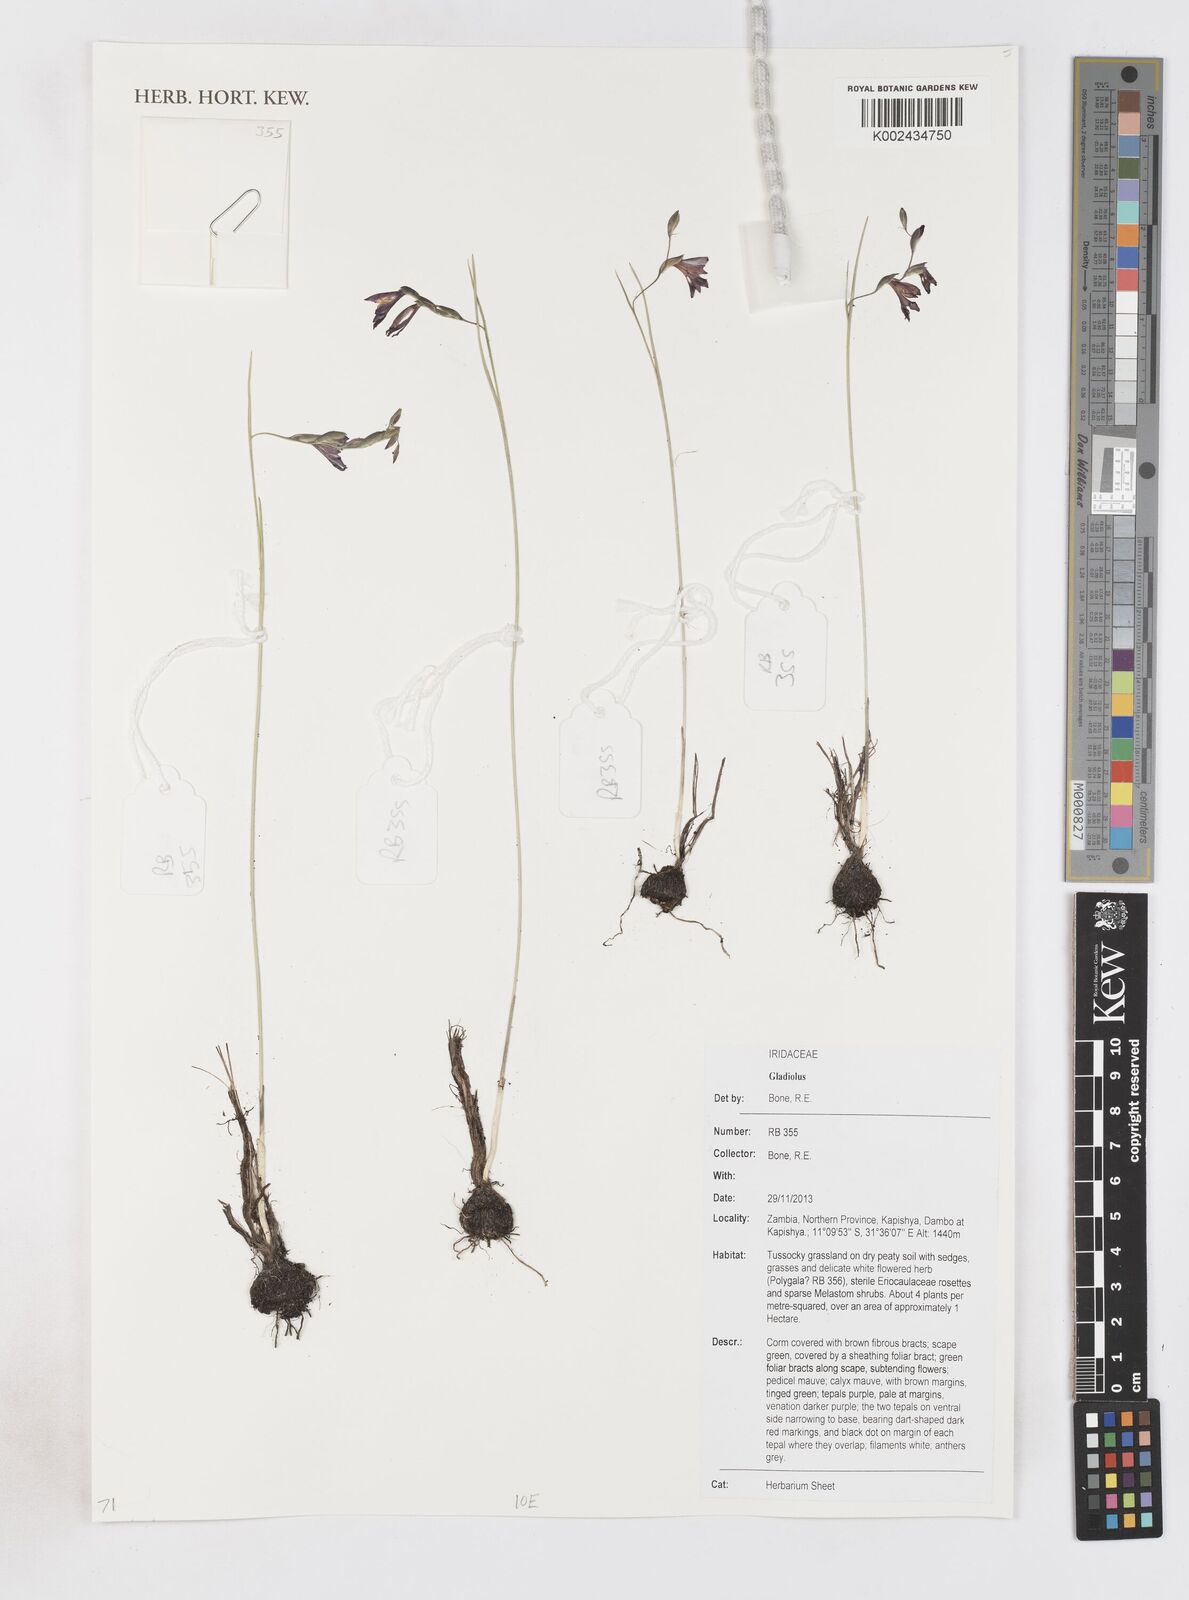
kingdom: Plantae
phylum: Tracheophyta
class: Liliopsida
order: Asparagales
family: Iridaceae
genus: Gladiolus
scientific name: Gladiolus
